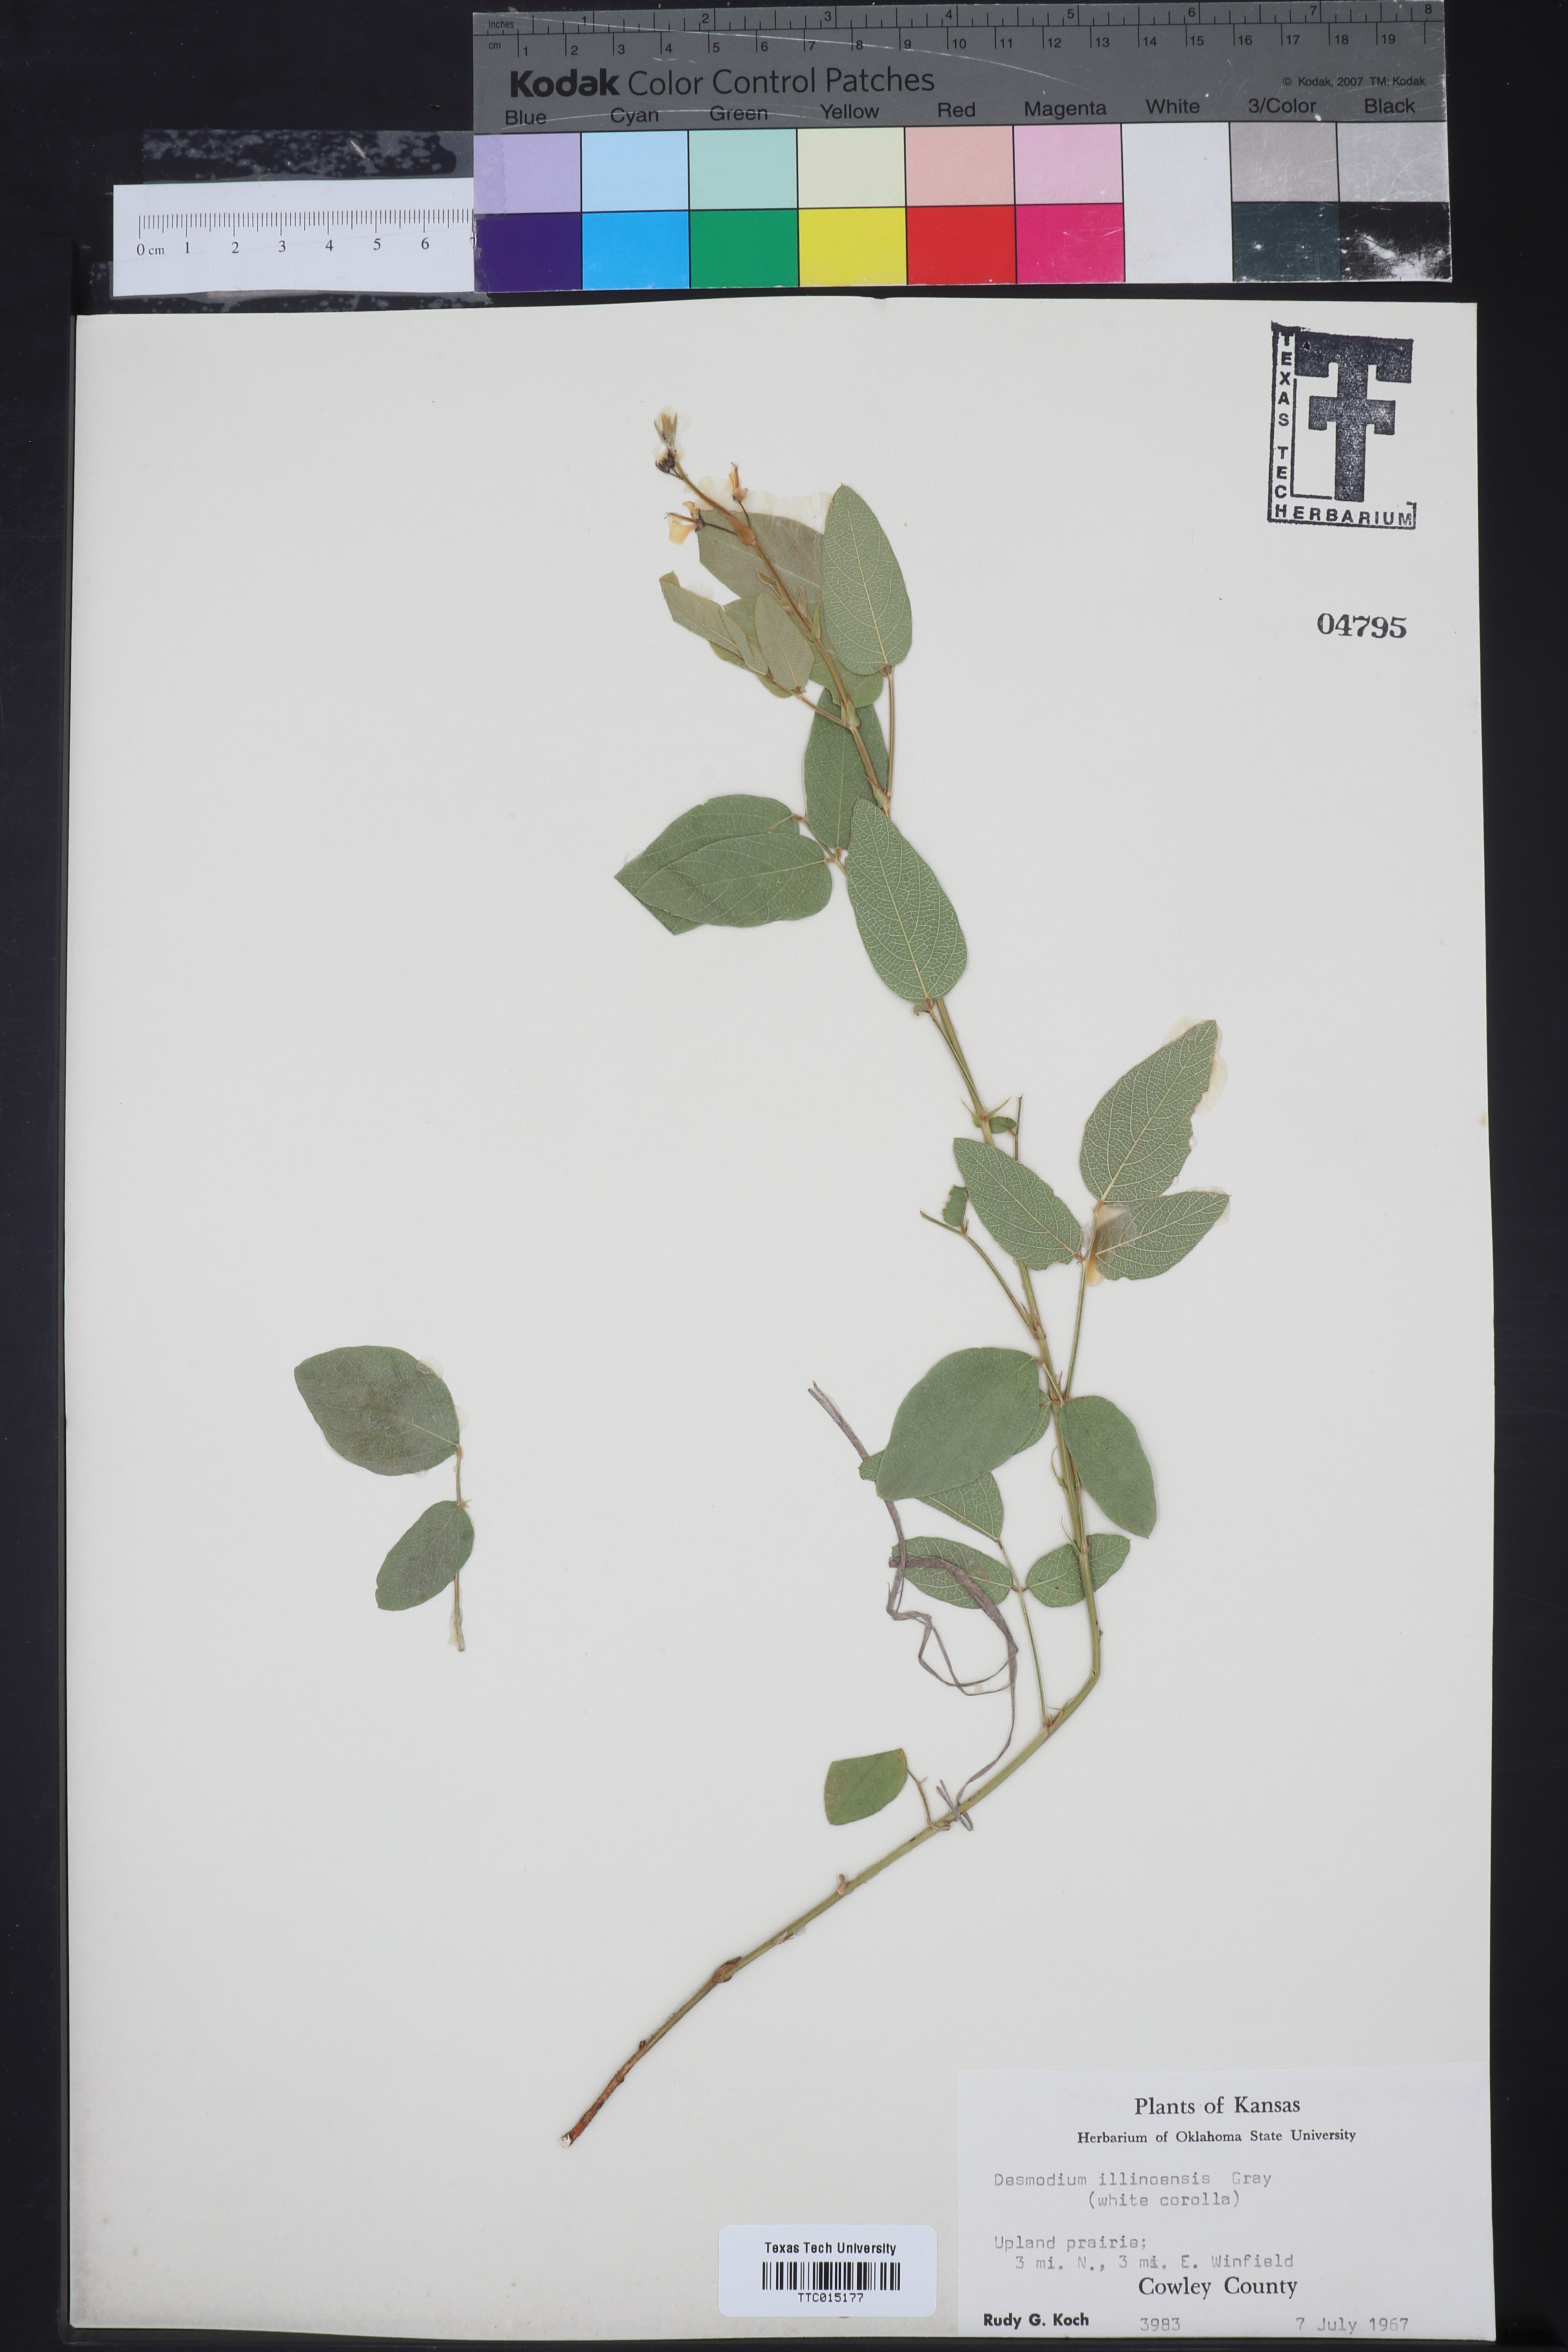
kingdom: Plantae
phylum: Tracheophyta
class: Magnoliopsida
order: Fabales
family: Fabaceae
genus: Desmanthus
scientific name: Desmanthus illinoensis
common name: Illinois bundle-flower
